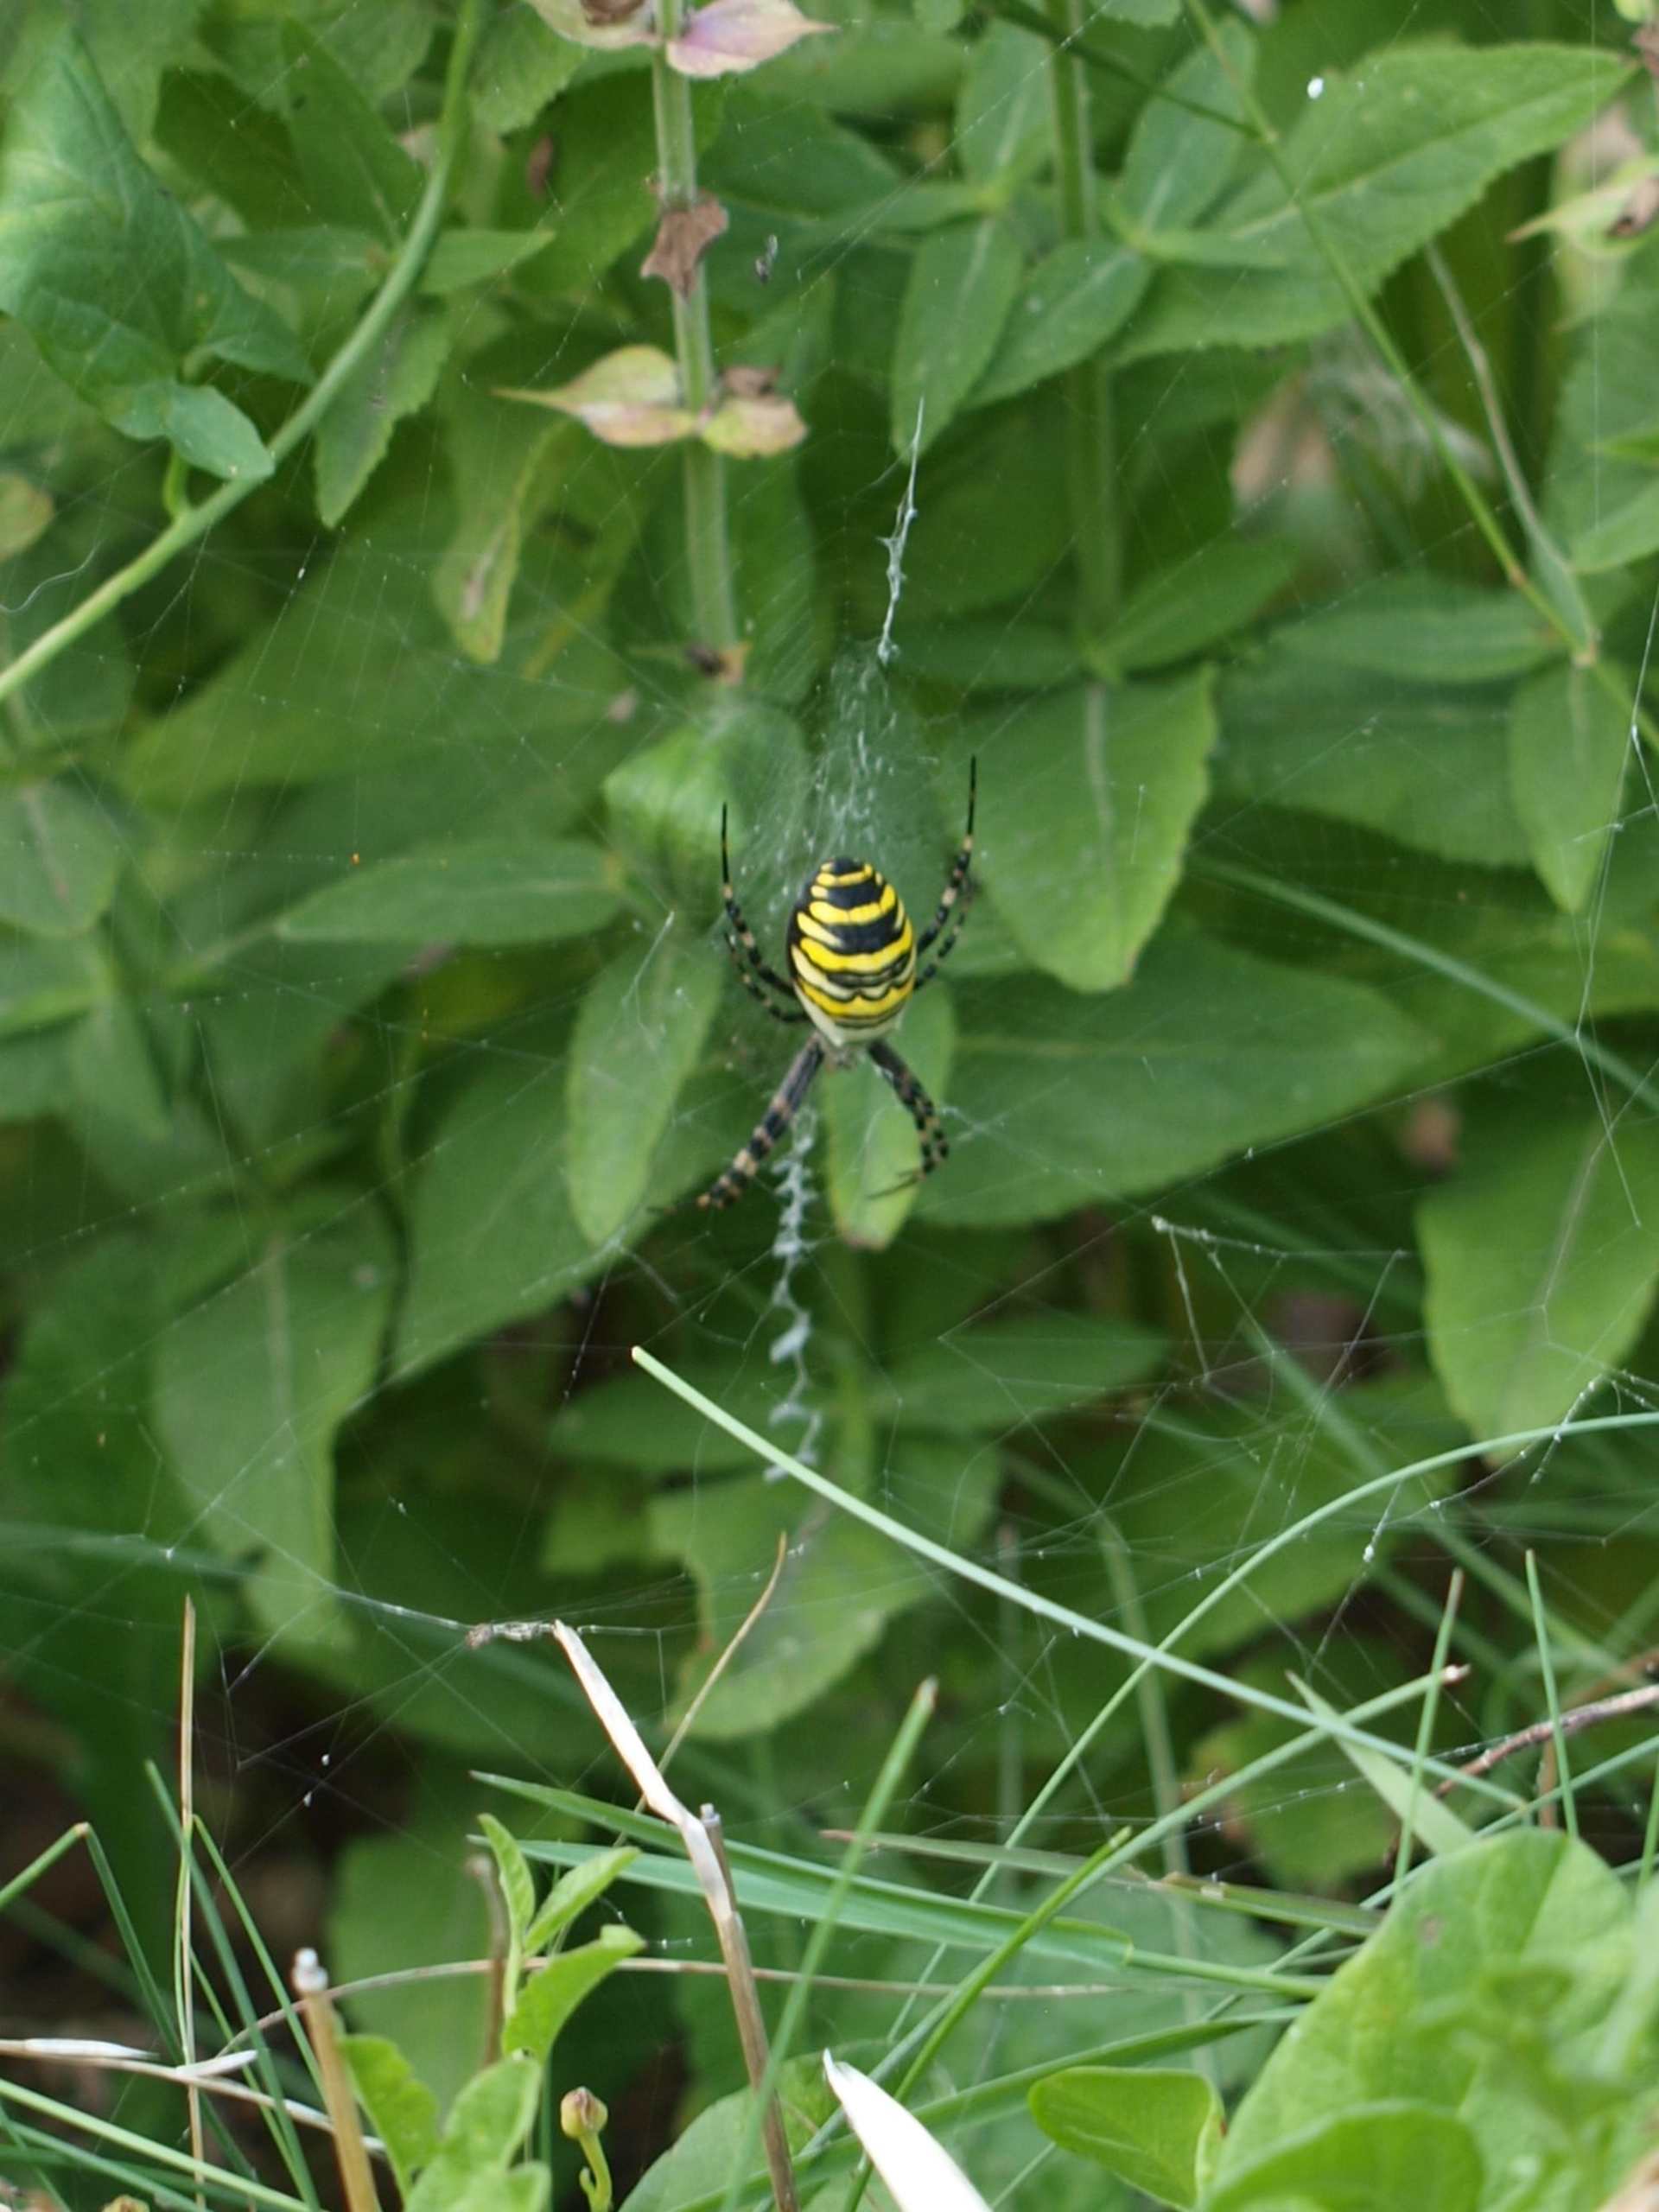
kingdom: Animalia
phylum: Arthropoda
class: Arachnida
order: Araneae
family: Araneidae
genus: Argiope
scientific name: Argiope bruennichi
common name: Hvepseedderkop
